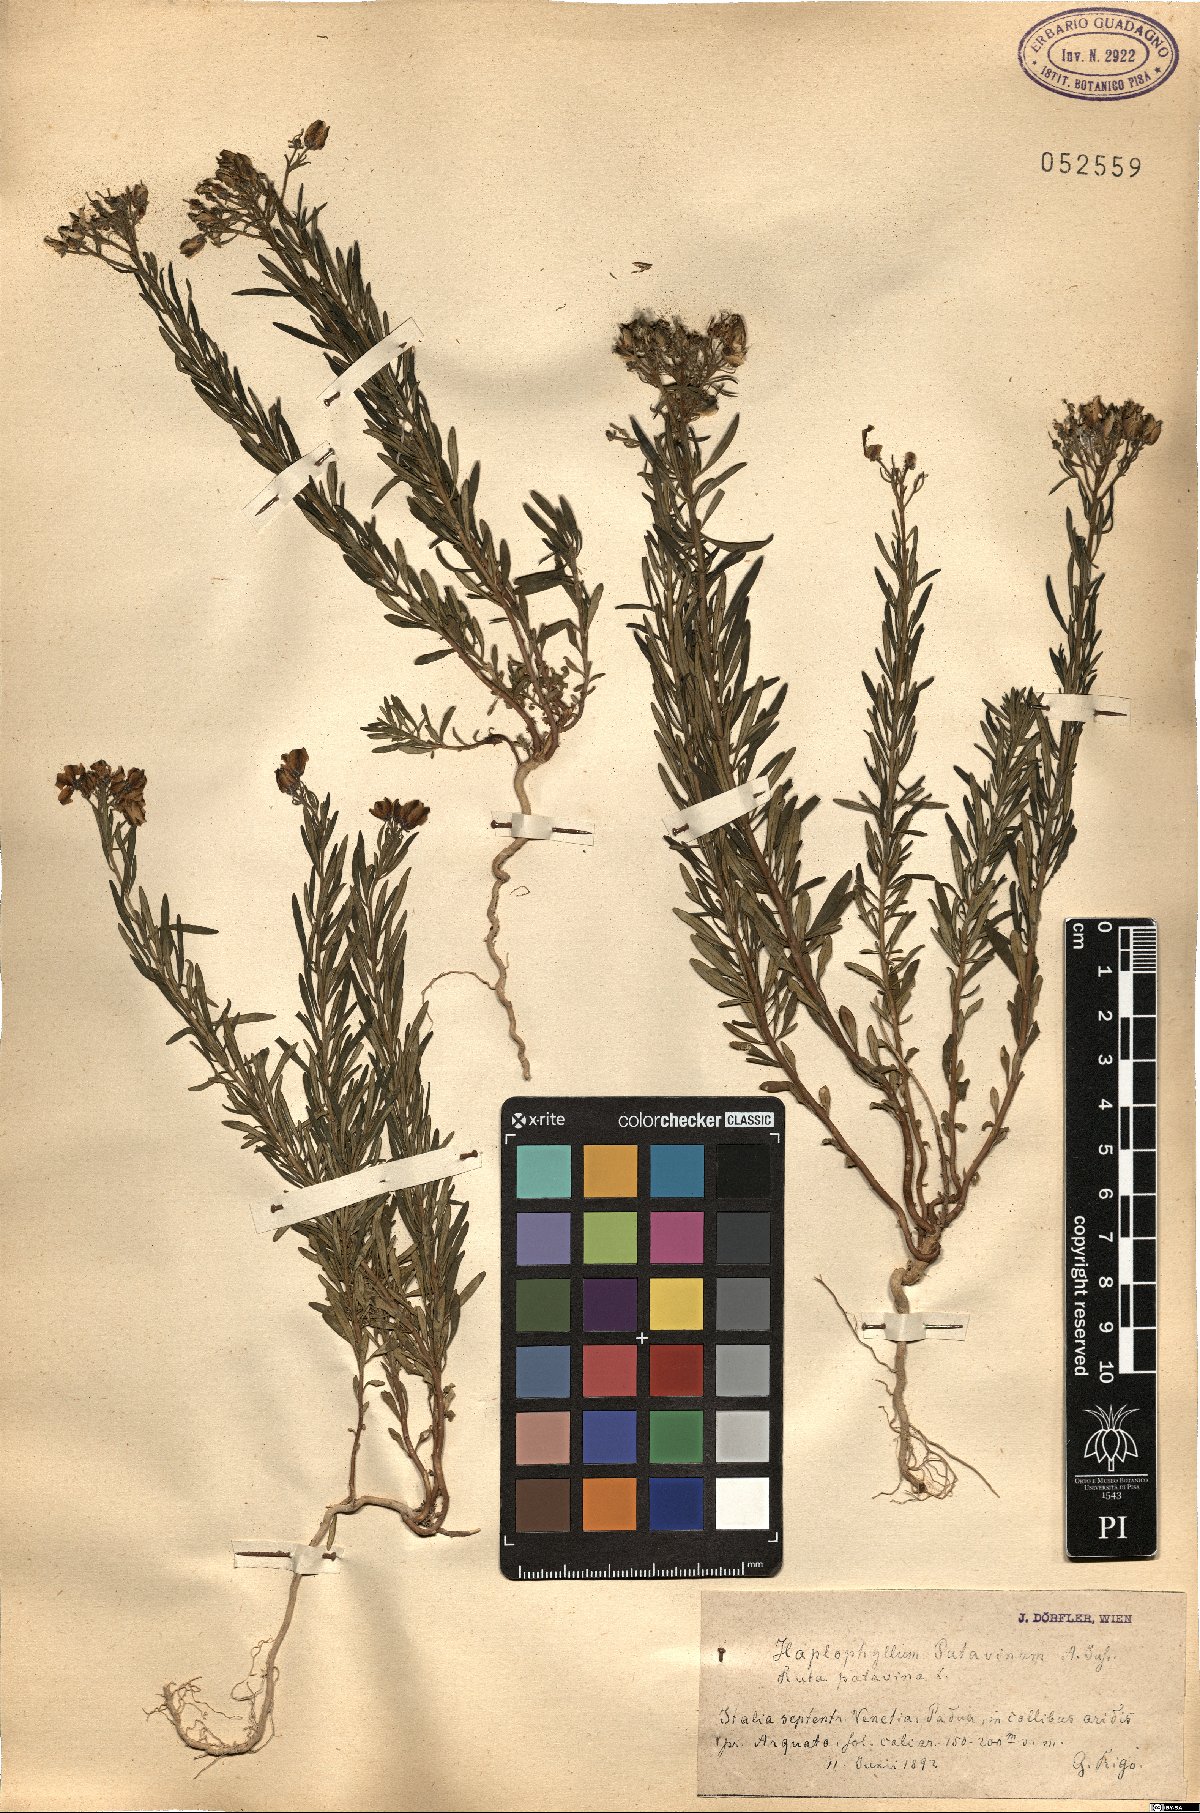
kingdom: Plantae
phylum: Tracheophyta
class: Magnoliopsida
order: Sapindales
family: Rutaceae
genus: Haplophyllum
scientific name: Haplophyllum patavinum
